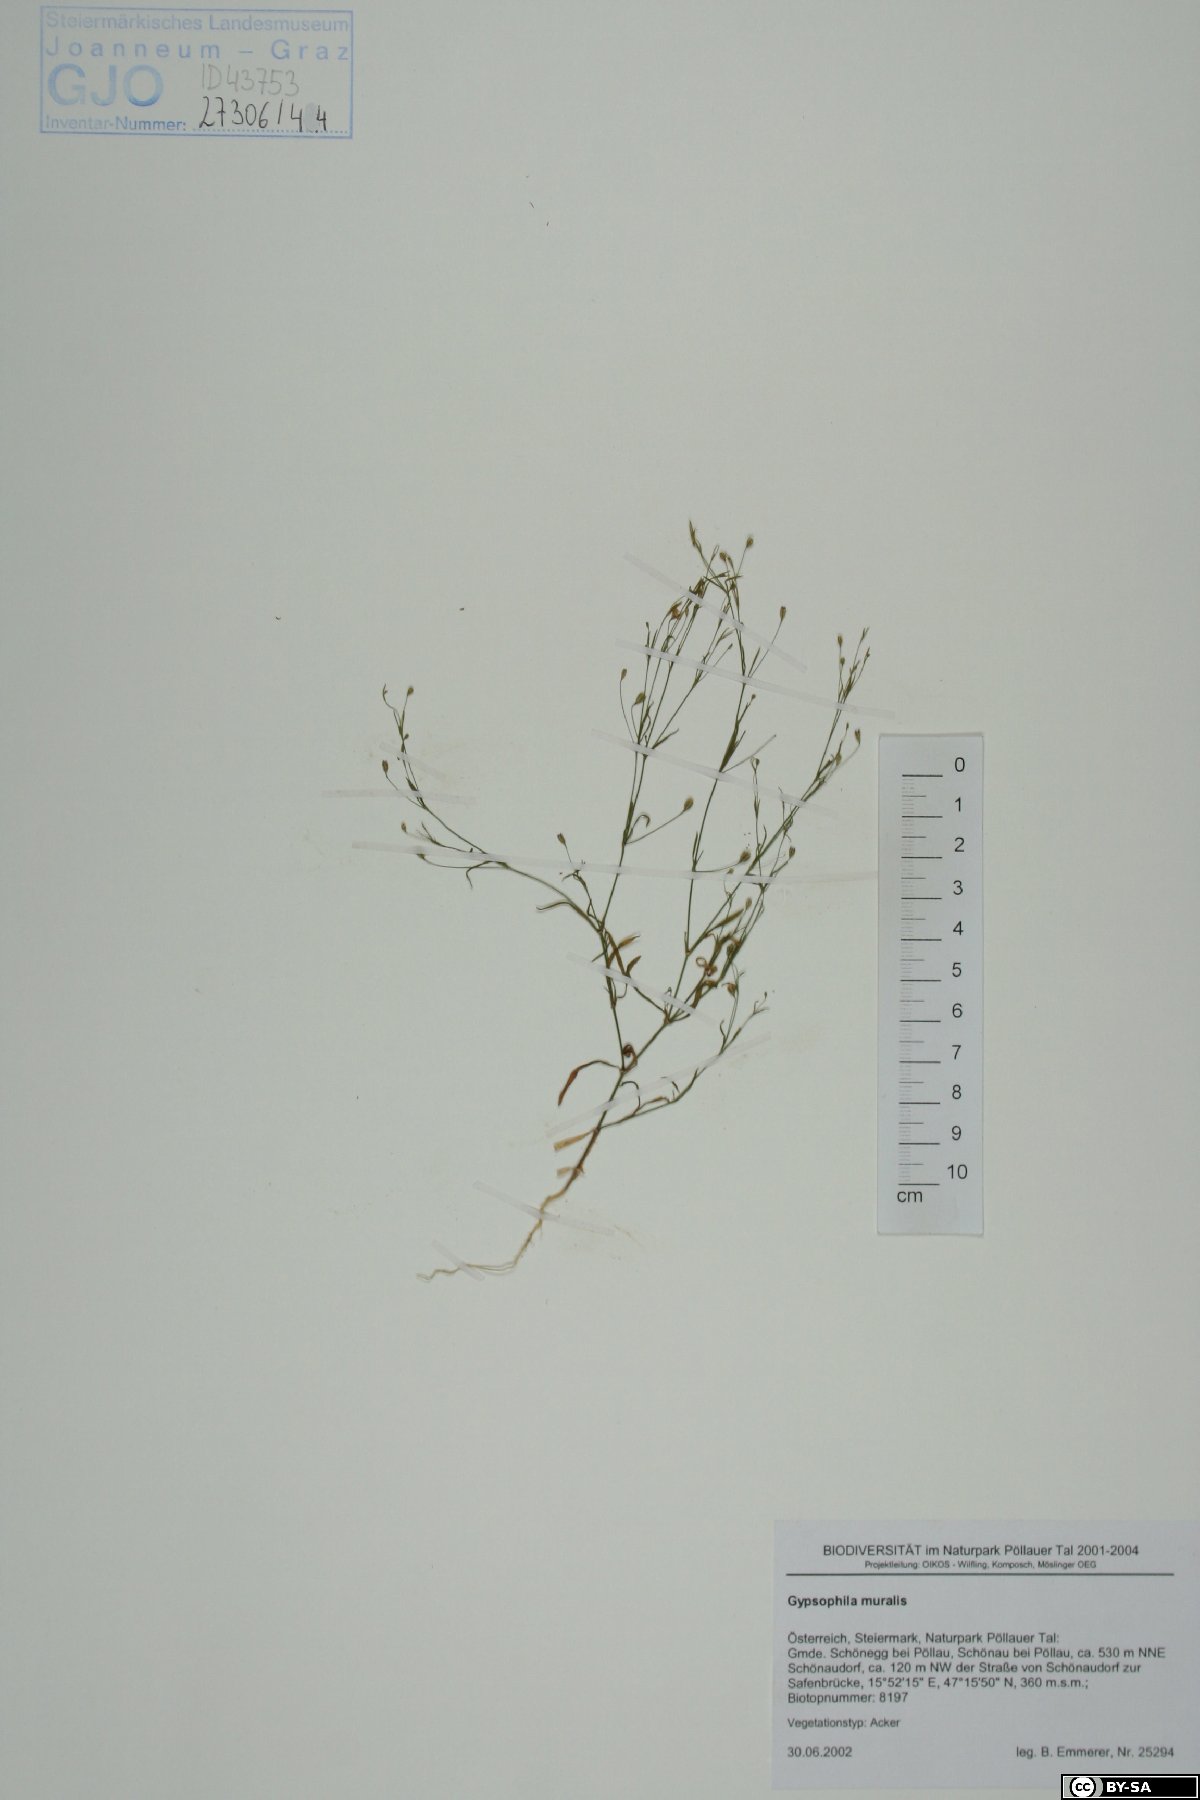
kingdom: Plantae
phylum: Tracheophyta
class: Magnoliopsida
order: Caryophyllales
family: Caryophyllaceae
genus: Psammophiliella
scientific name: Psammophiliella muralis
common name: Cushion baby's-breath
